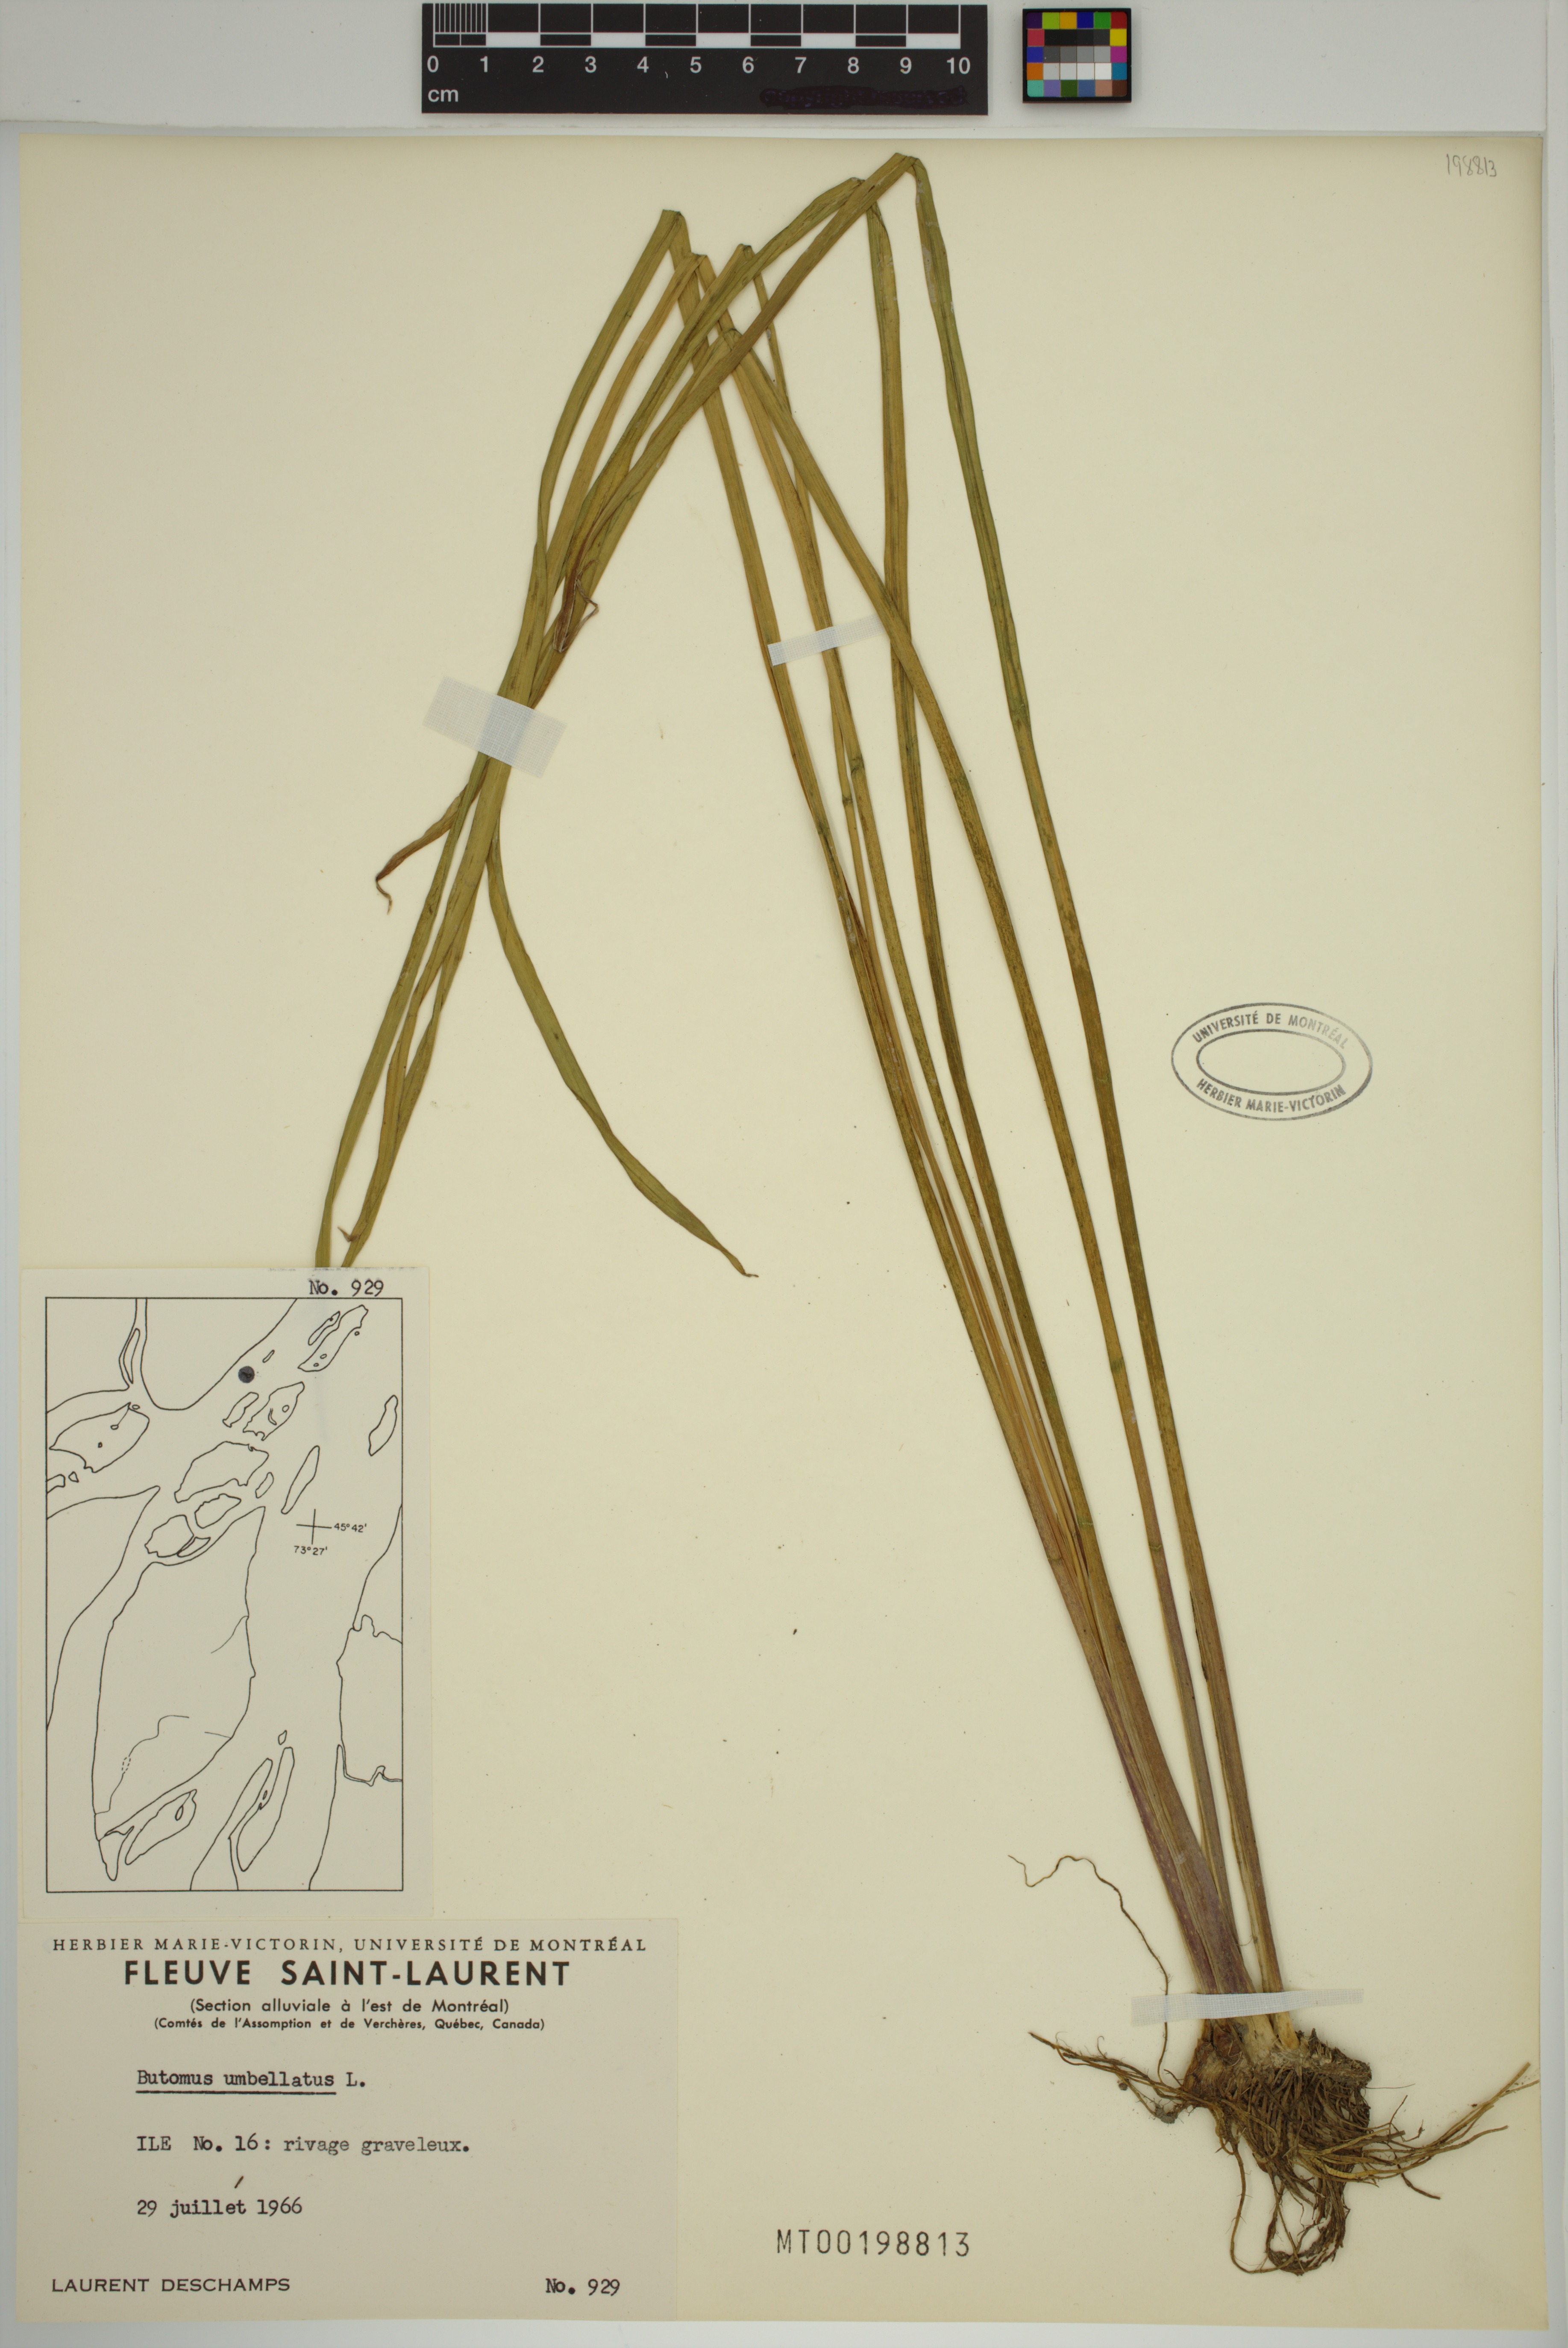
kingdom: Plantae
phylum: Tracheophyta
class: Liliopsida
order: Alismatales
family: Butomaceae
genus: Butomus
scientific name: Butomus umbellatus
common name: Flowering-rush
